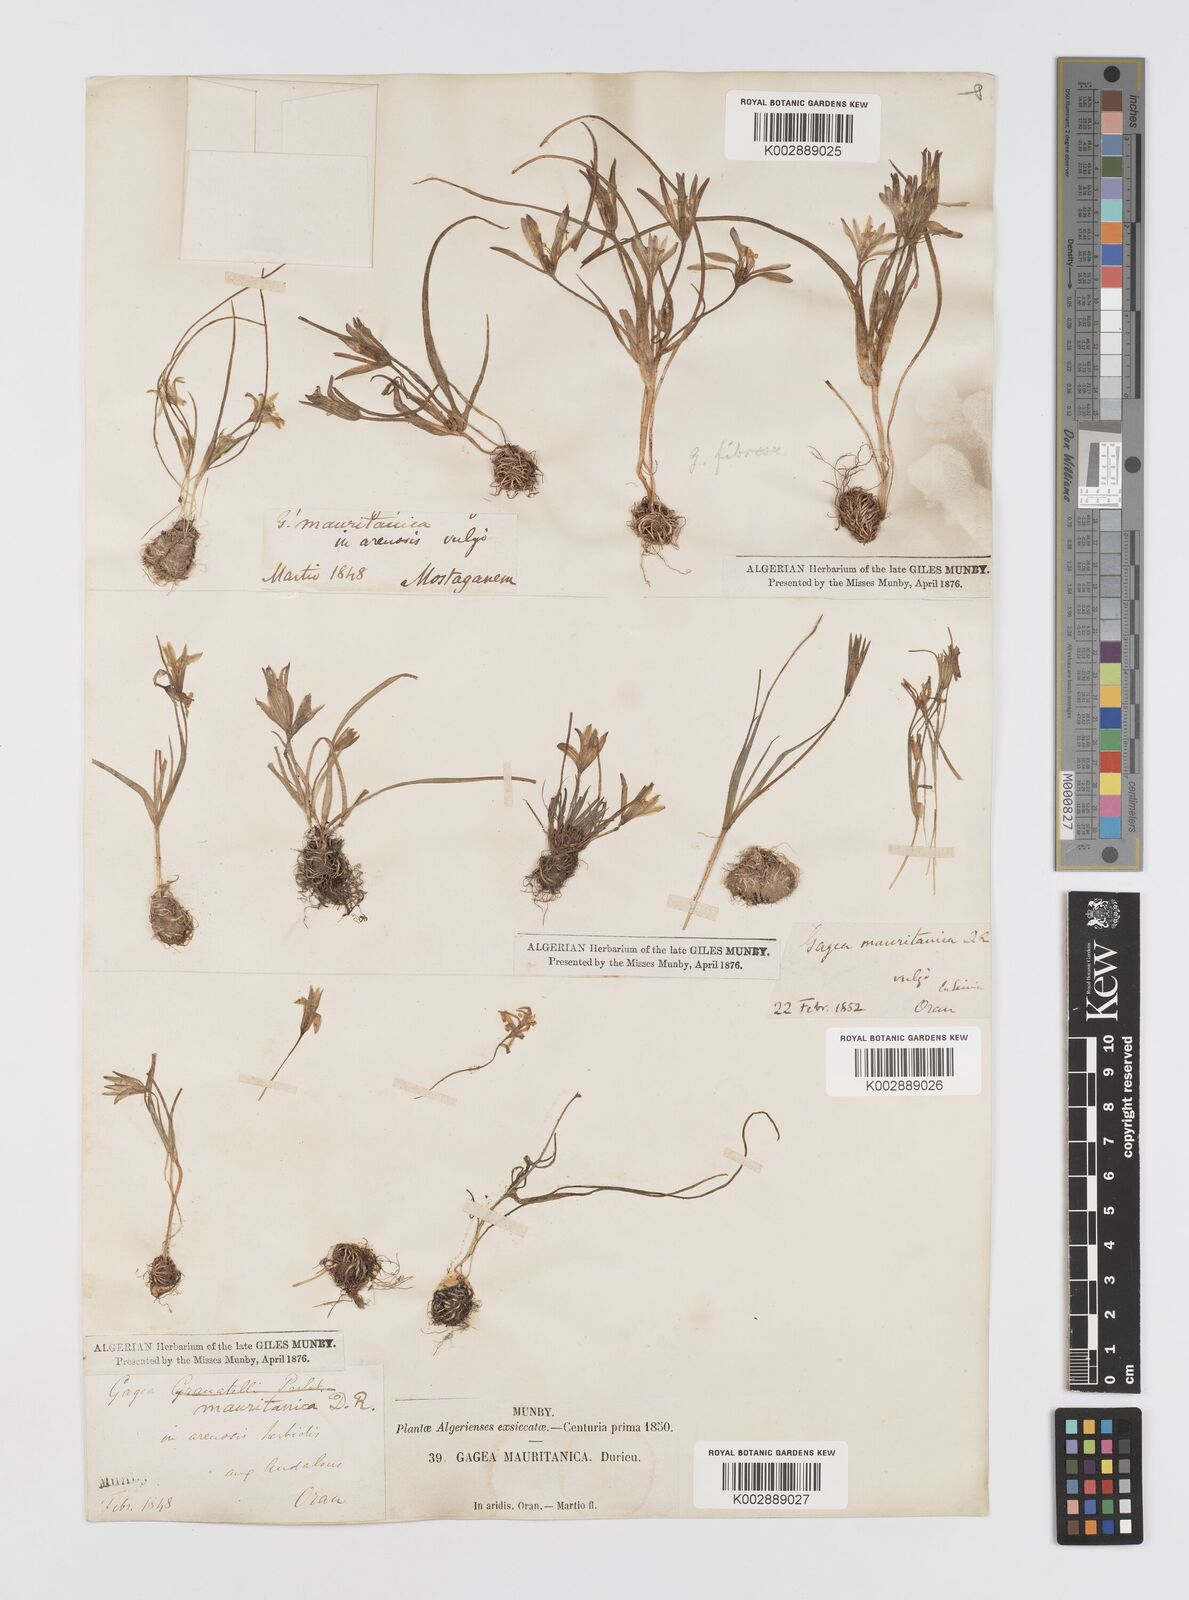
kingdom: Plantae
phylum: Tracheophyta
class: Liliopsida
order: Liliales
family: Liliaceae
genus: Gagea
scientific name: Gagea mauritanica
